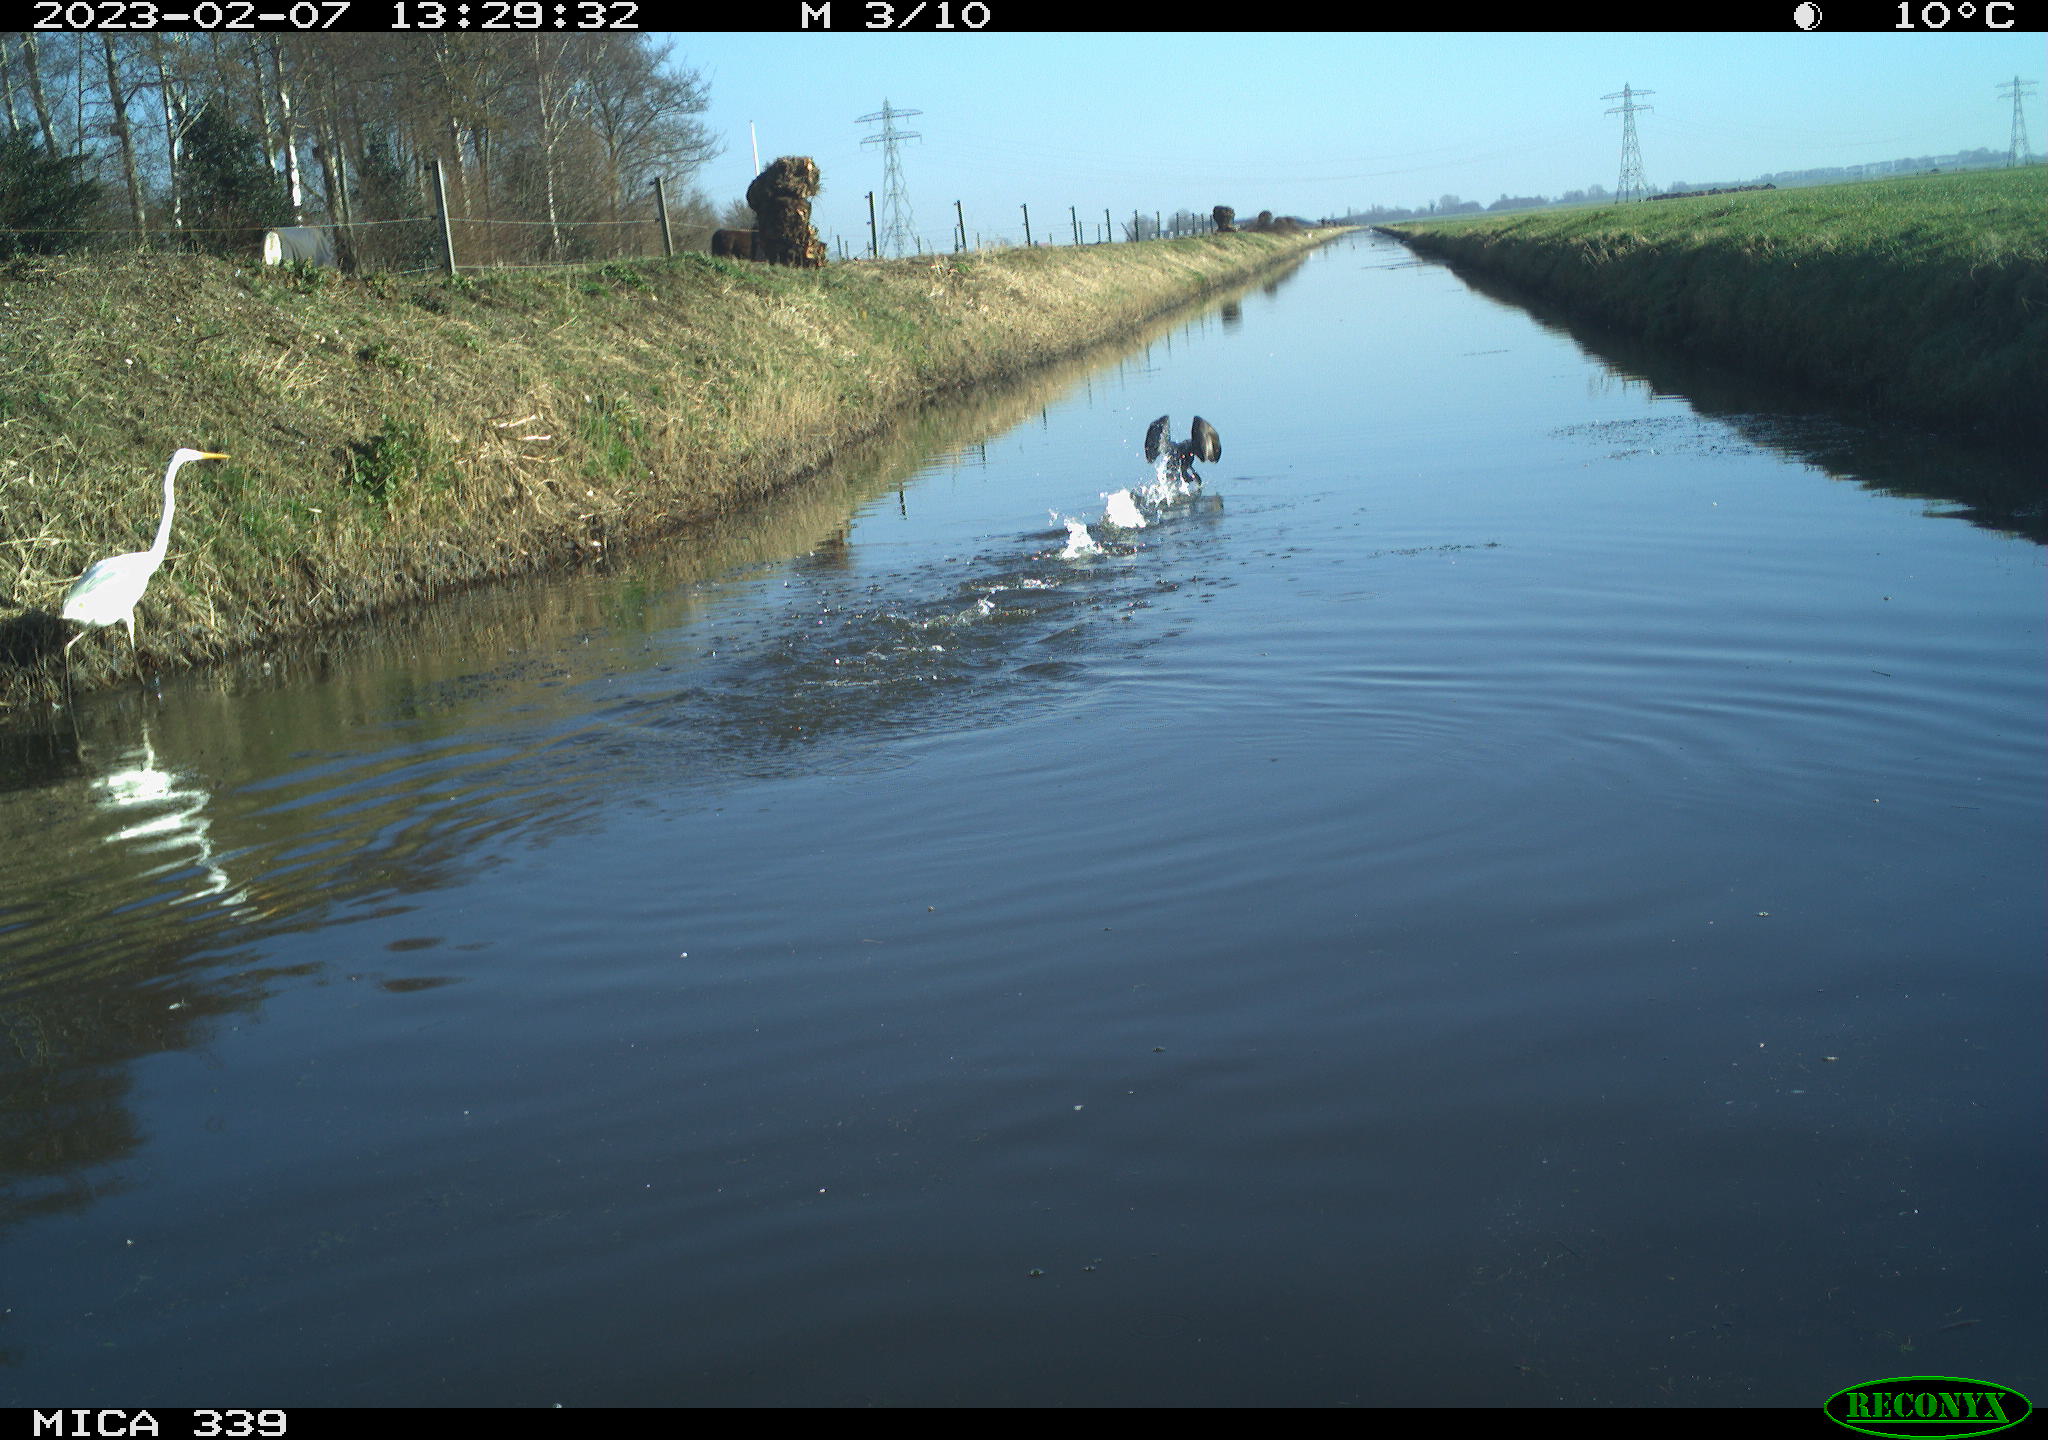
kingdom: Animalia
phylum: Chordata
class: Aves
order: Suliformes
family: Phalacrocoracidae
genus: Phalacrocorax
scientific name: Phalacrocorax carbo
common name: Great cormorant
